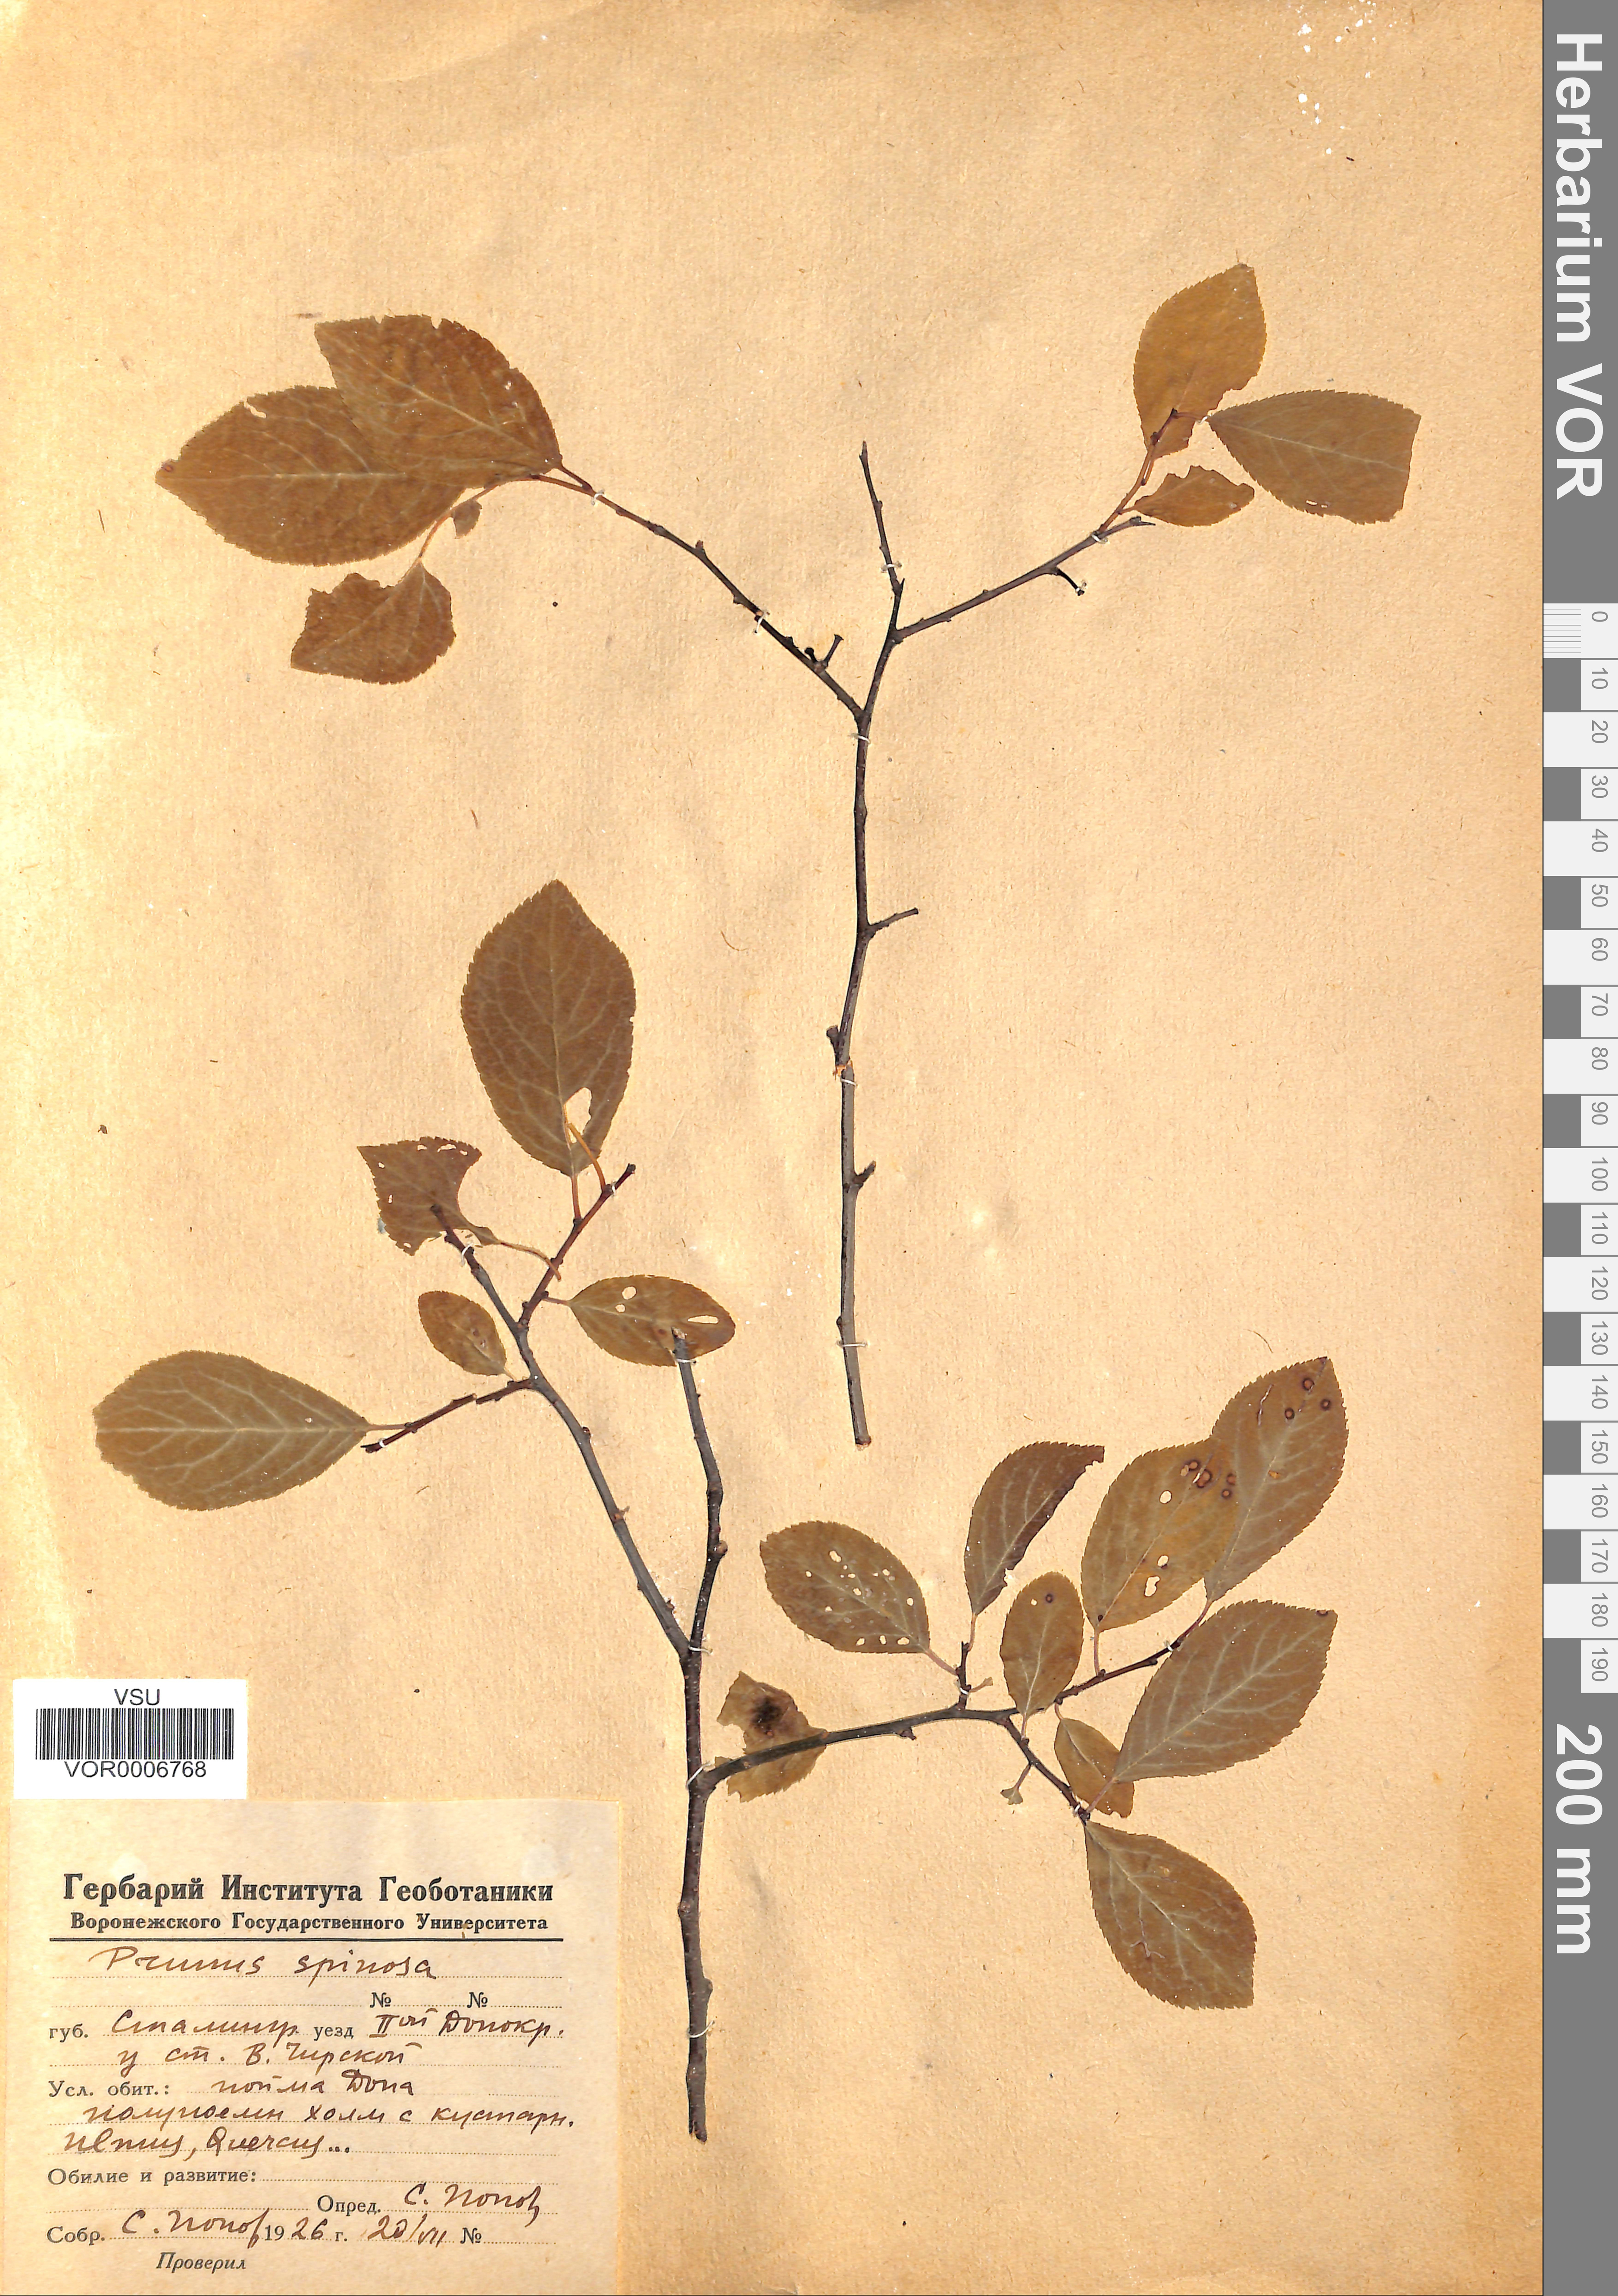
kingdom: Plantae
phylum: Tracheophyta
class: Magnoliopsida
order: Rosales
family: Rosaceae
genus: Prunus
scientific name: Prunus spinosa
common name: Blackthorn
